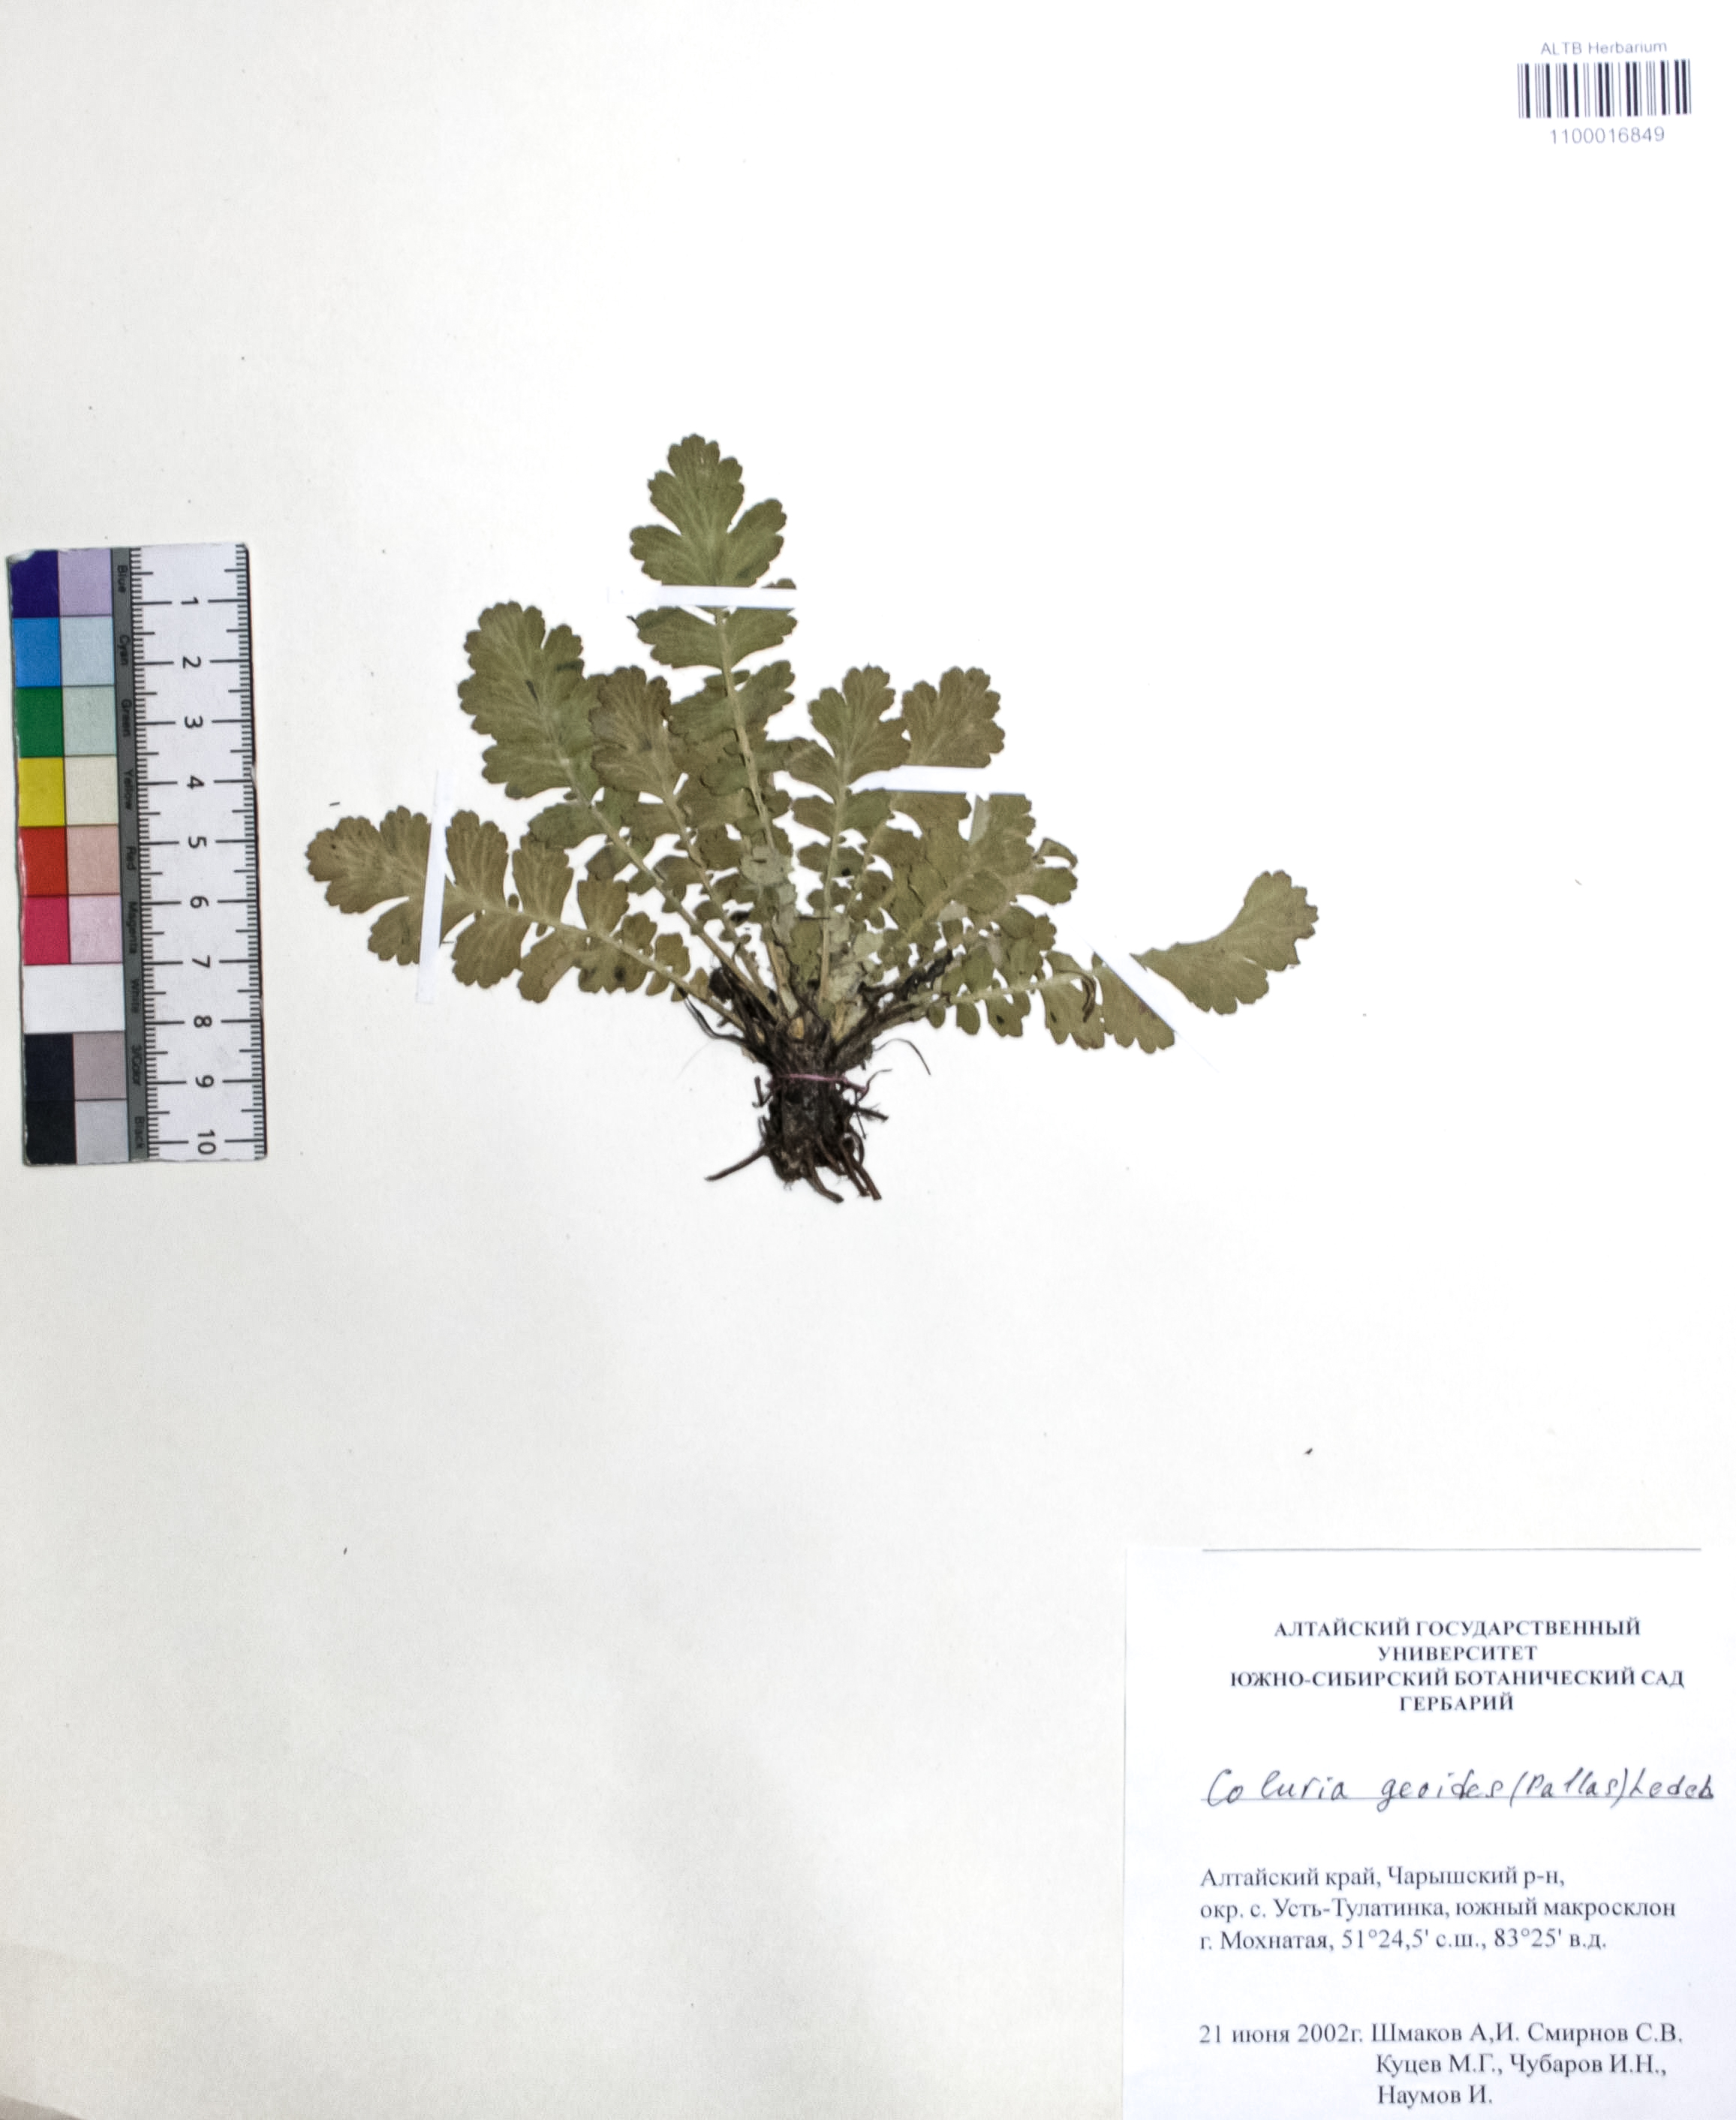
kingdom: Plantae
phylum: Tracheophyta
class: Magnoliopsida
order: Rosales
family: Rosaceae
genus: Geum
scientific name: Geum geoides
